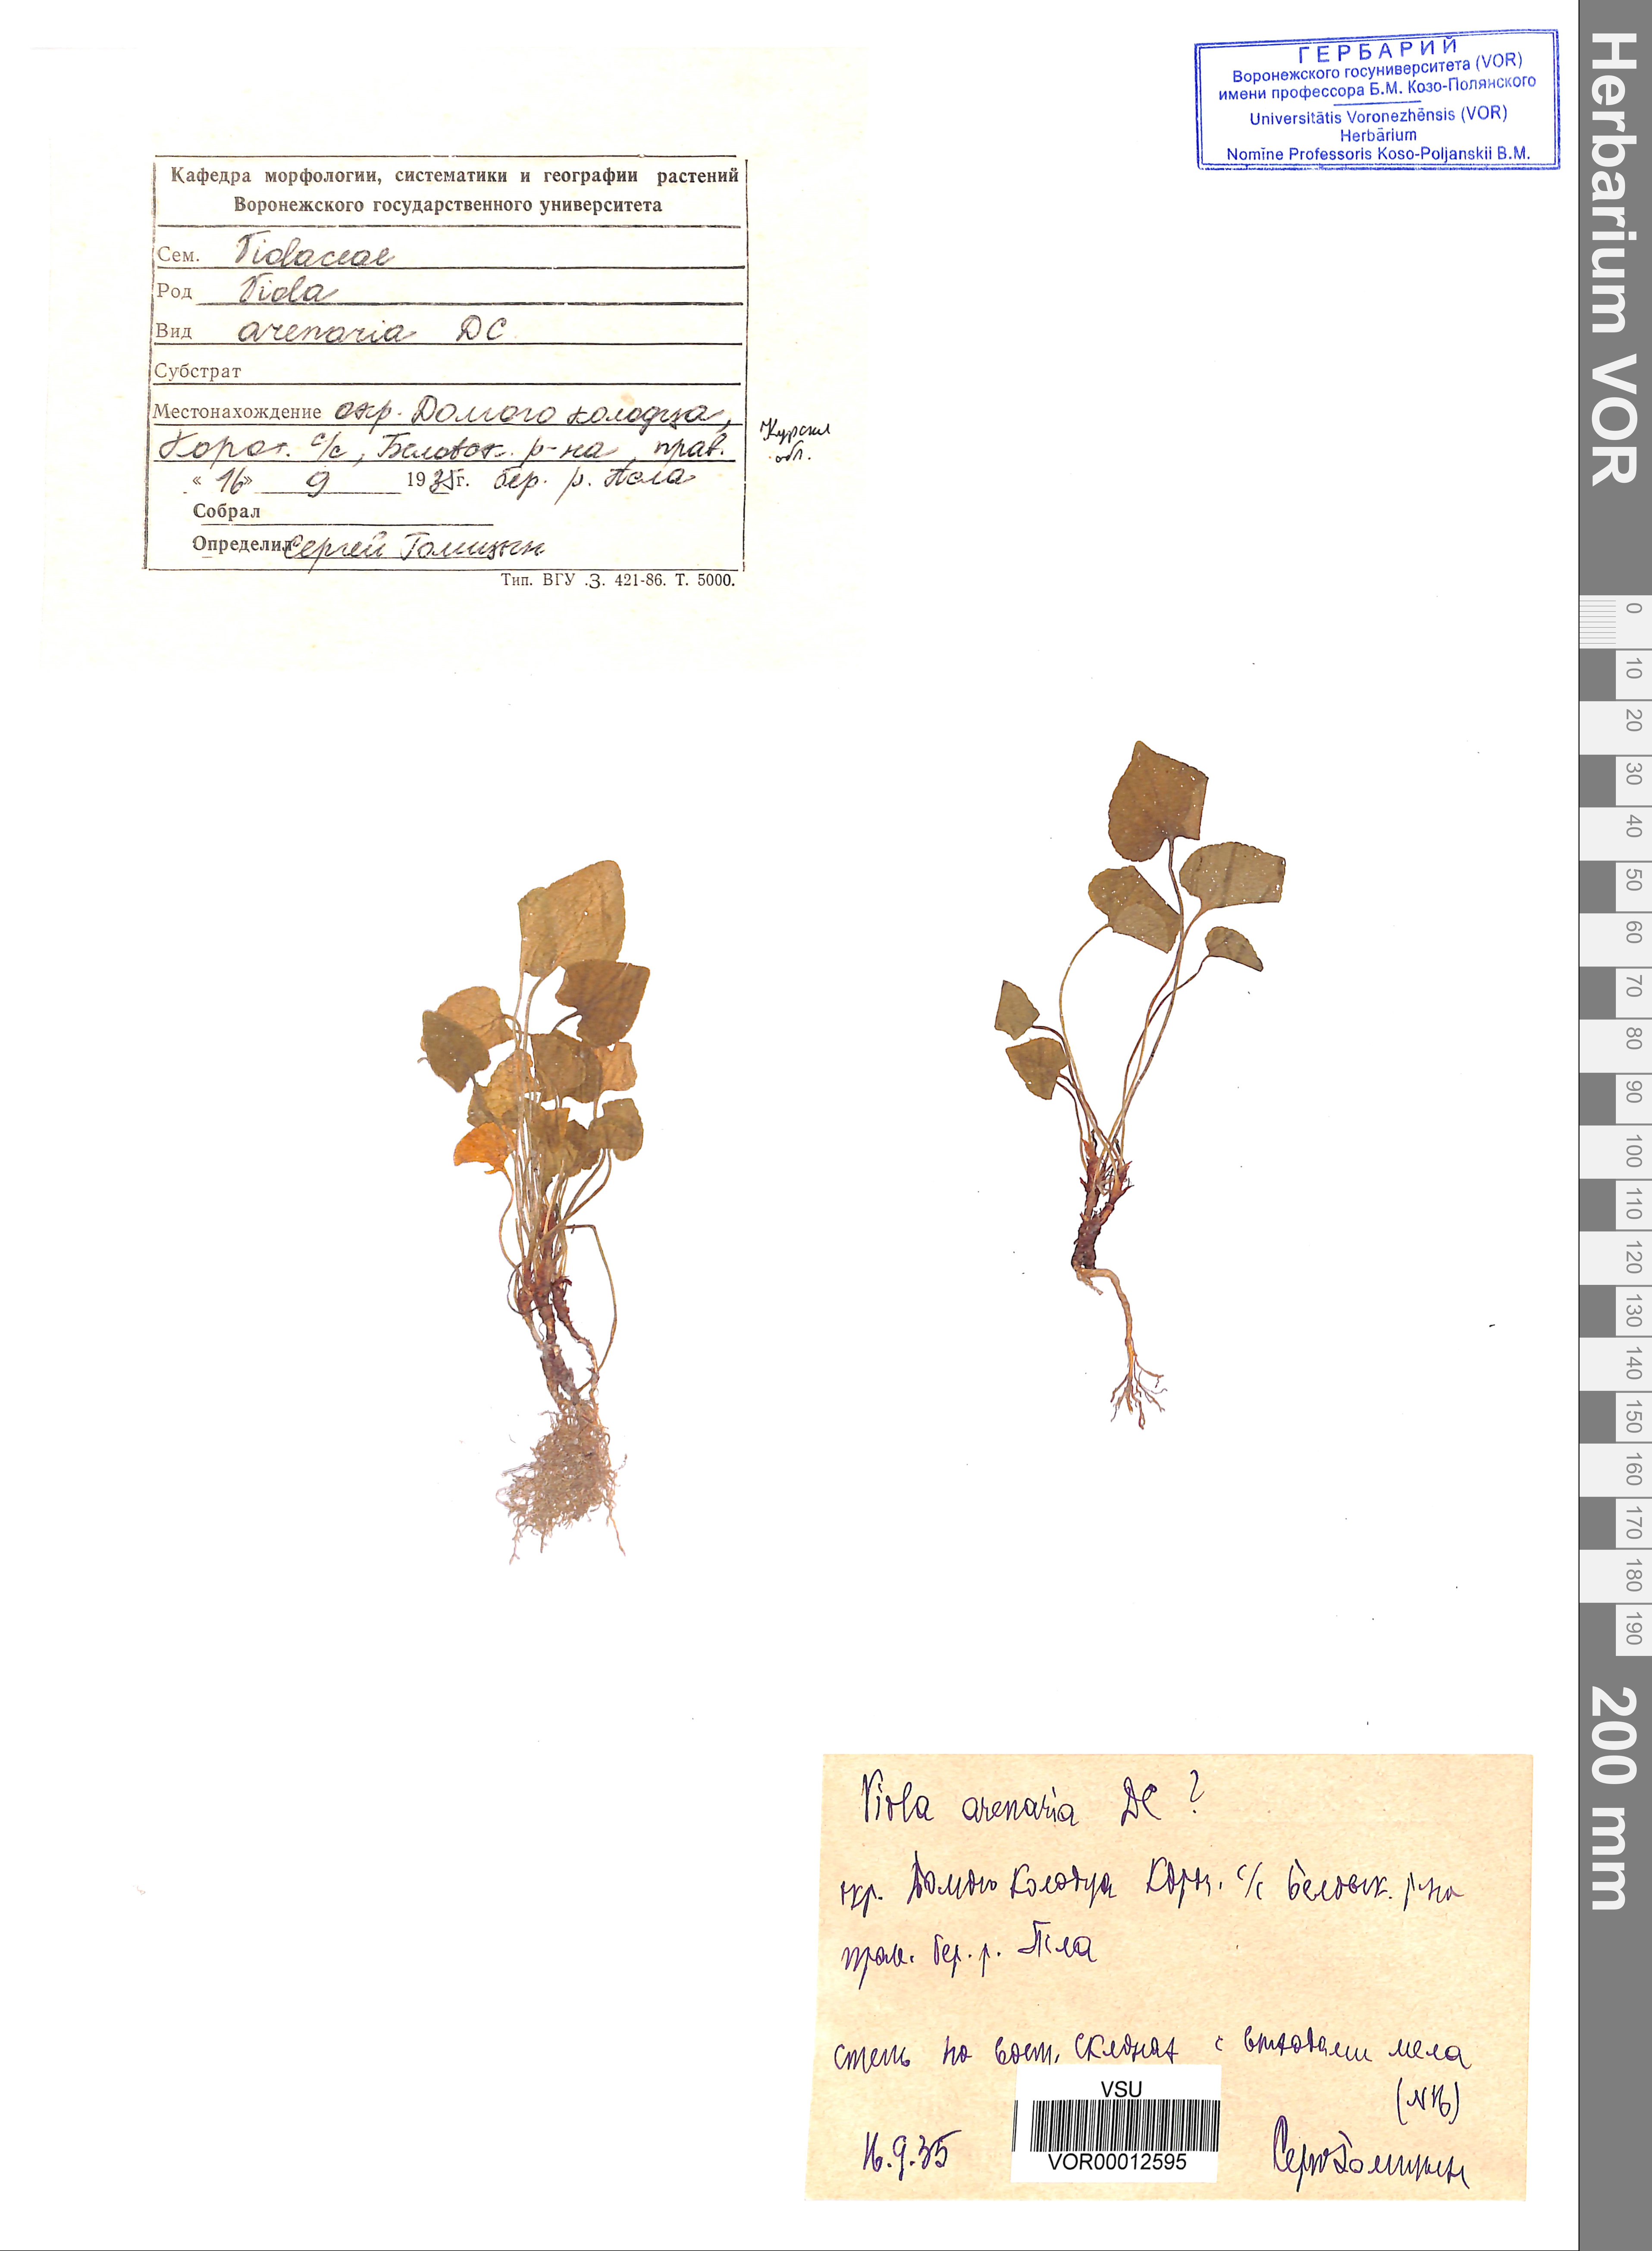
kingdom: Plantae
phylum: Tracheophyta
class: Magnoliopsida
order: Malpighiales
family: Violaceae
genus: Viola
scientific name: Viola rupestris
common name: Teesdale violet
